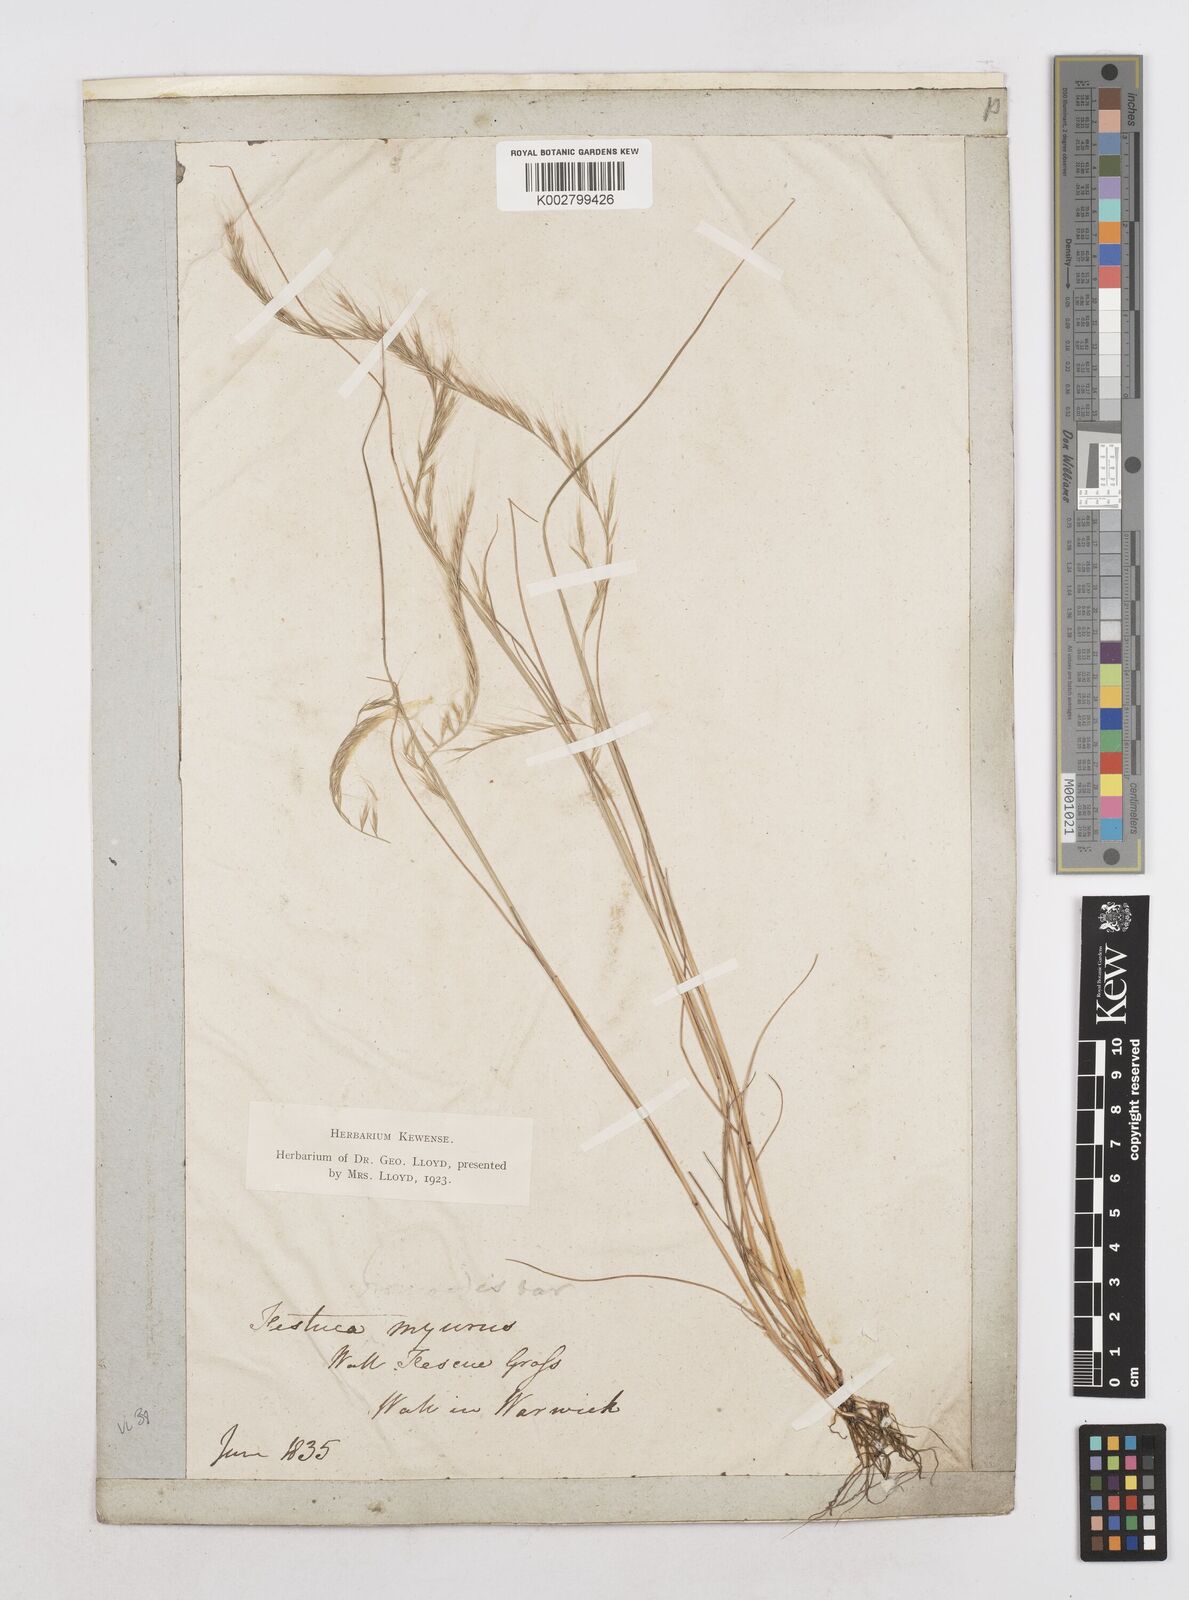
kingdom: Plantae
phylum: Tracheophyta
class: Liliopsida
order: Poales
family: Poaceae
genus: Festuca
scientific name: Festuca myuros
